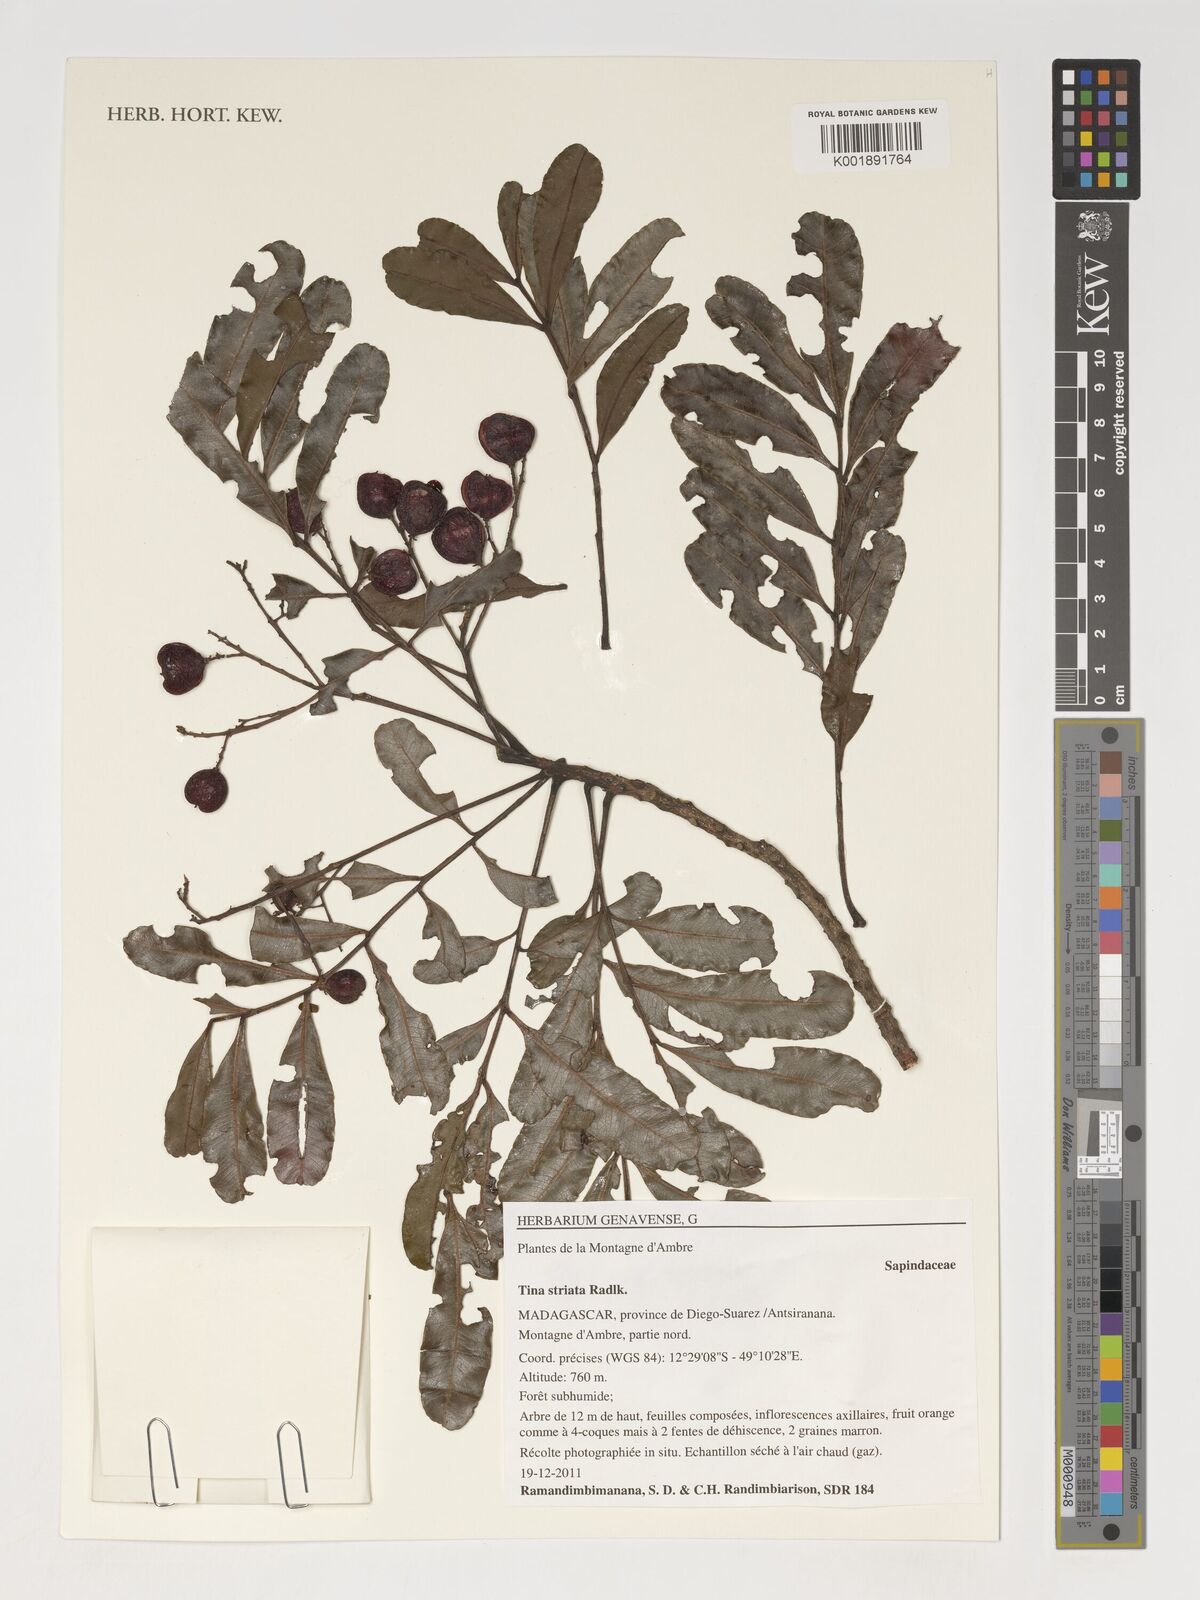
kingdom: Plantae
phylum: Tracheophyta
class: Magnoliopsida
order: Sapindales
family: Sapindaceae
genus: Tina
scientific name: Tina striata
